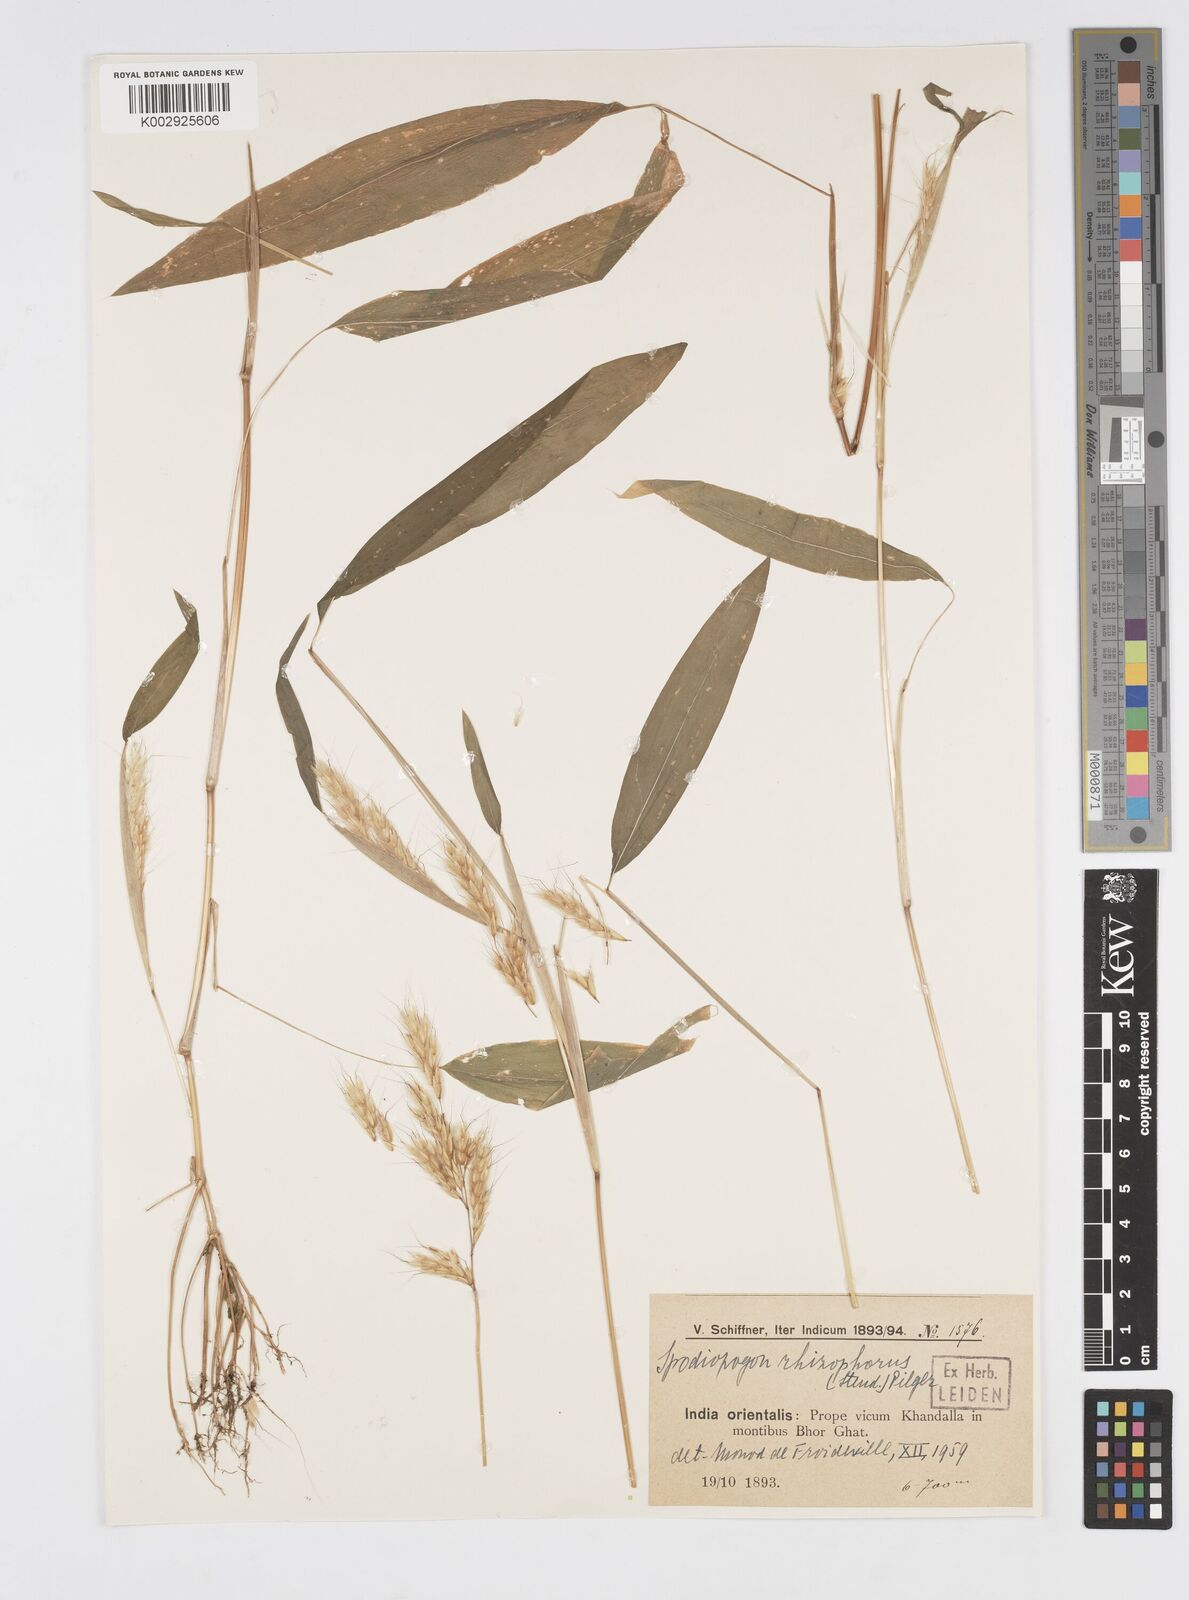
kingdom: Plantae
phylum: Tracheophyta
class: Liliopsida
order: Poales
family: Poaceae
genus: Spodiopogon
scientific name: Spodiopogon rhizophorus
